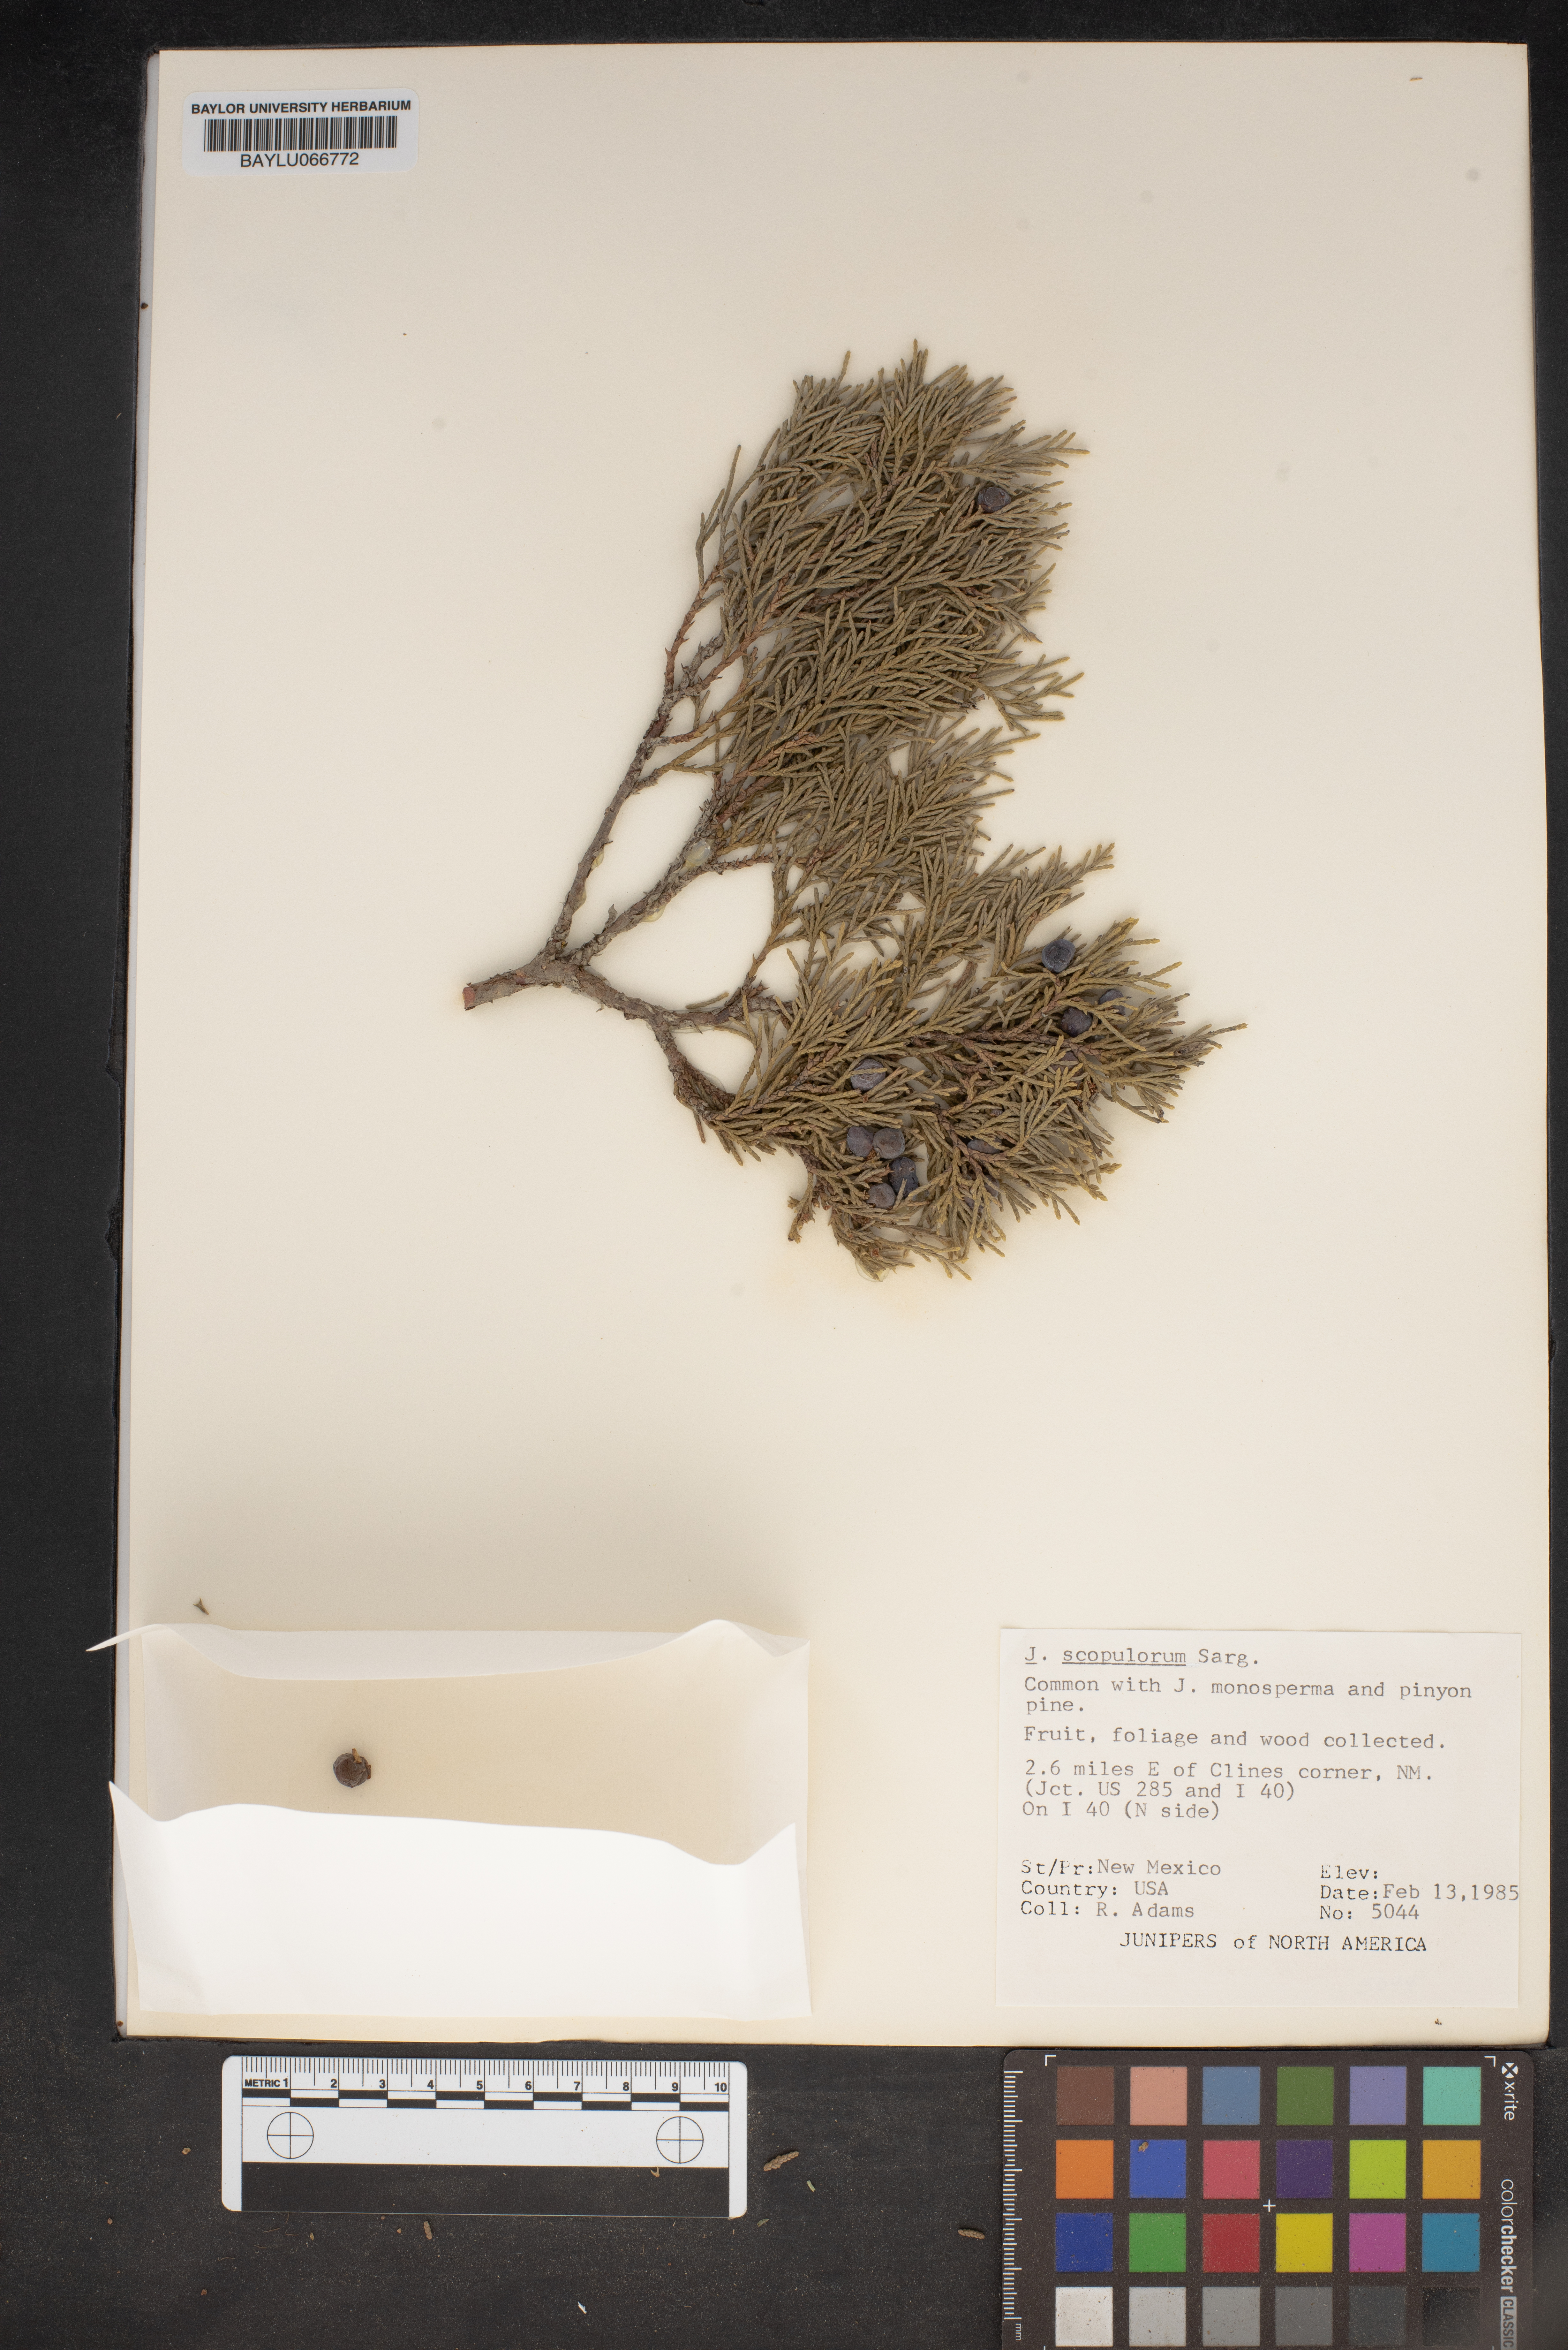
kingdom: Plantae
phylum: Tracheophyta
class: Pinopsida
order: Pinales
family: Cupressaceae
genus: Juniperus
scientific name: Juniperus scopulorum
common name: Rocky mountain juniper
